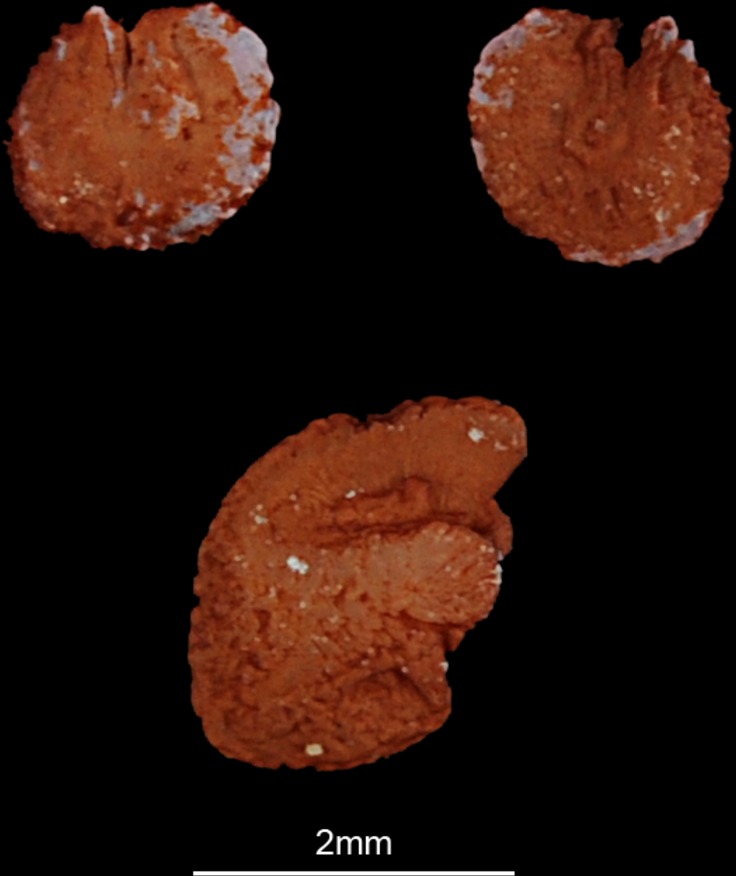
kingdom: Animalia
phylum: Chordata
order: Siluriformes
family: Claroteidae
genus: Chrysichthys
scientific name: Chrysichthys auratus
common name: Golden nile catfish
